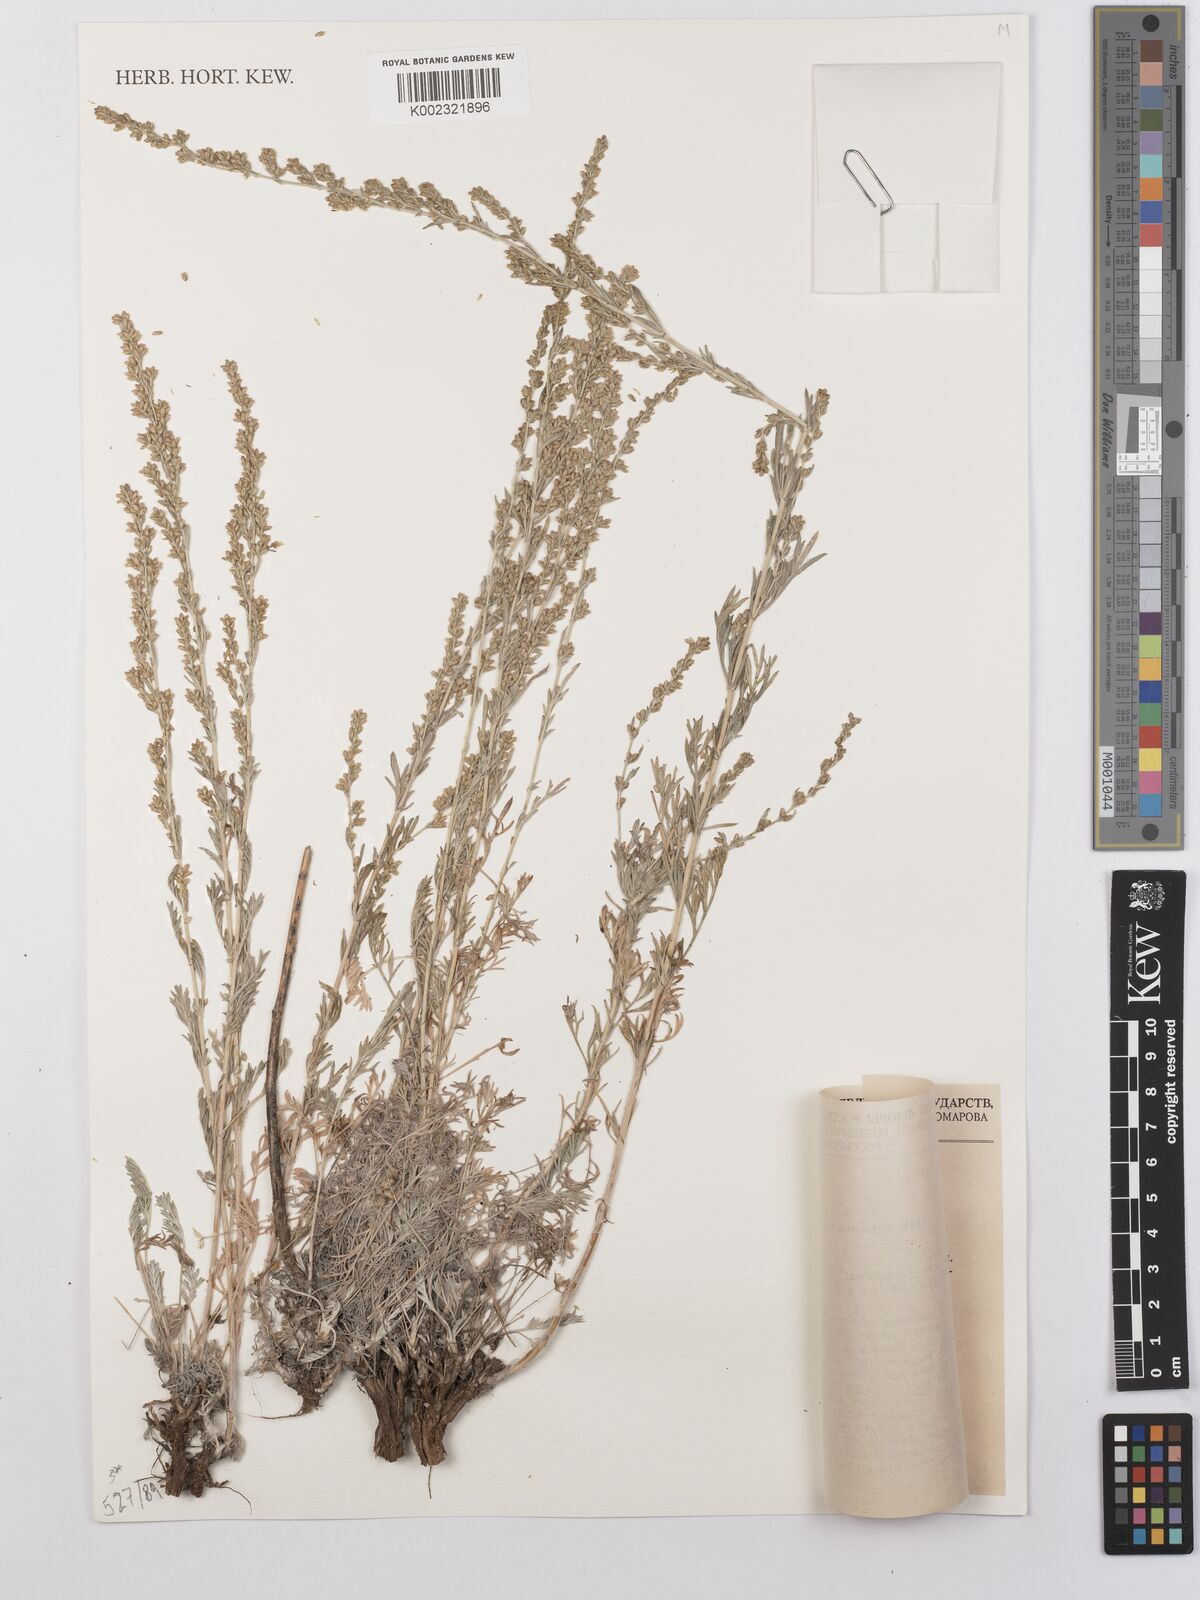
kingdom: Plantae
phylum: Tracheophyta
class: Magnoliopsida
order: Asterales
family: Asteraceae
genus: Artemisia
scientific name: Artemisia korovinii
